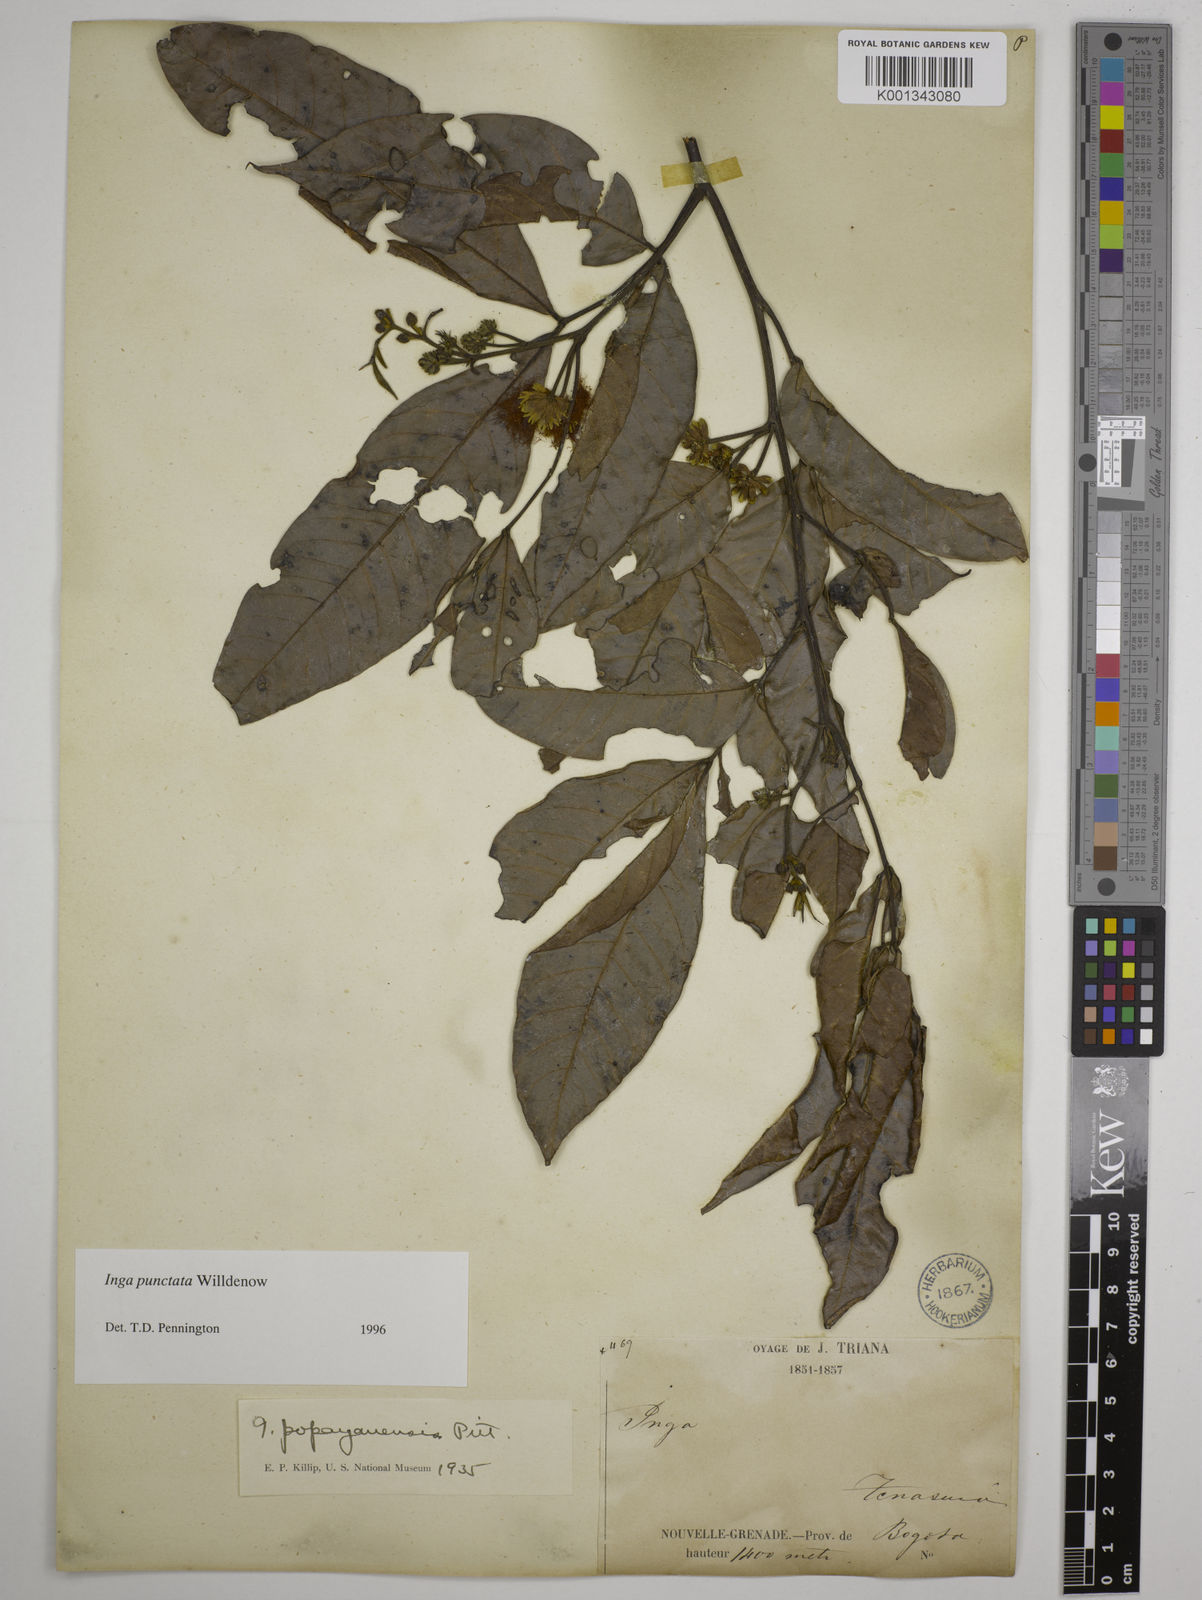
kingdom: Plantae
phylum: Tracheophyta
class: Magnoliopsida
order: Fabales
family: Fabaceae
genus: Inga
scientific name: Inga punctata
